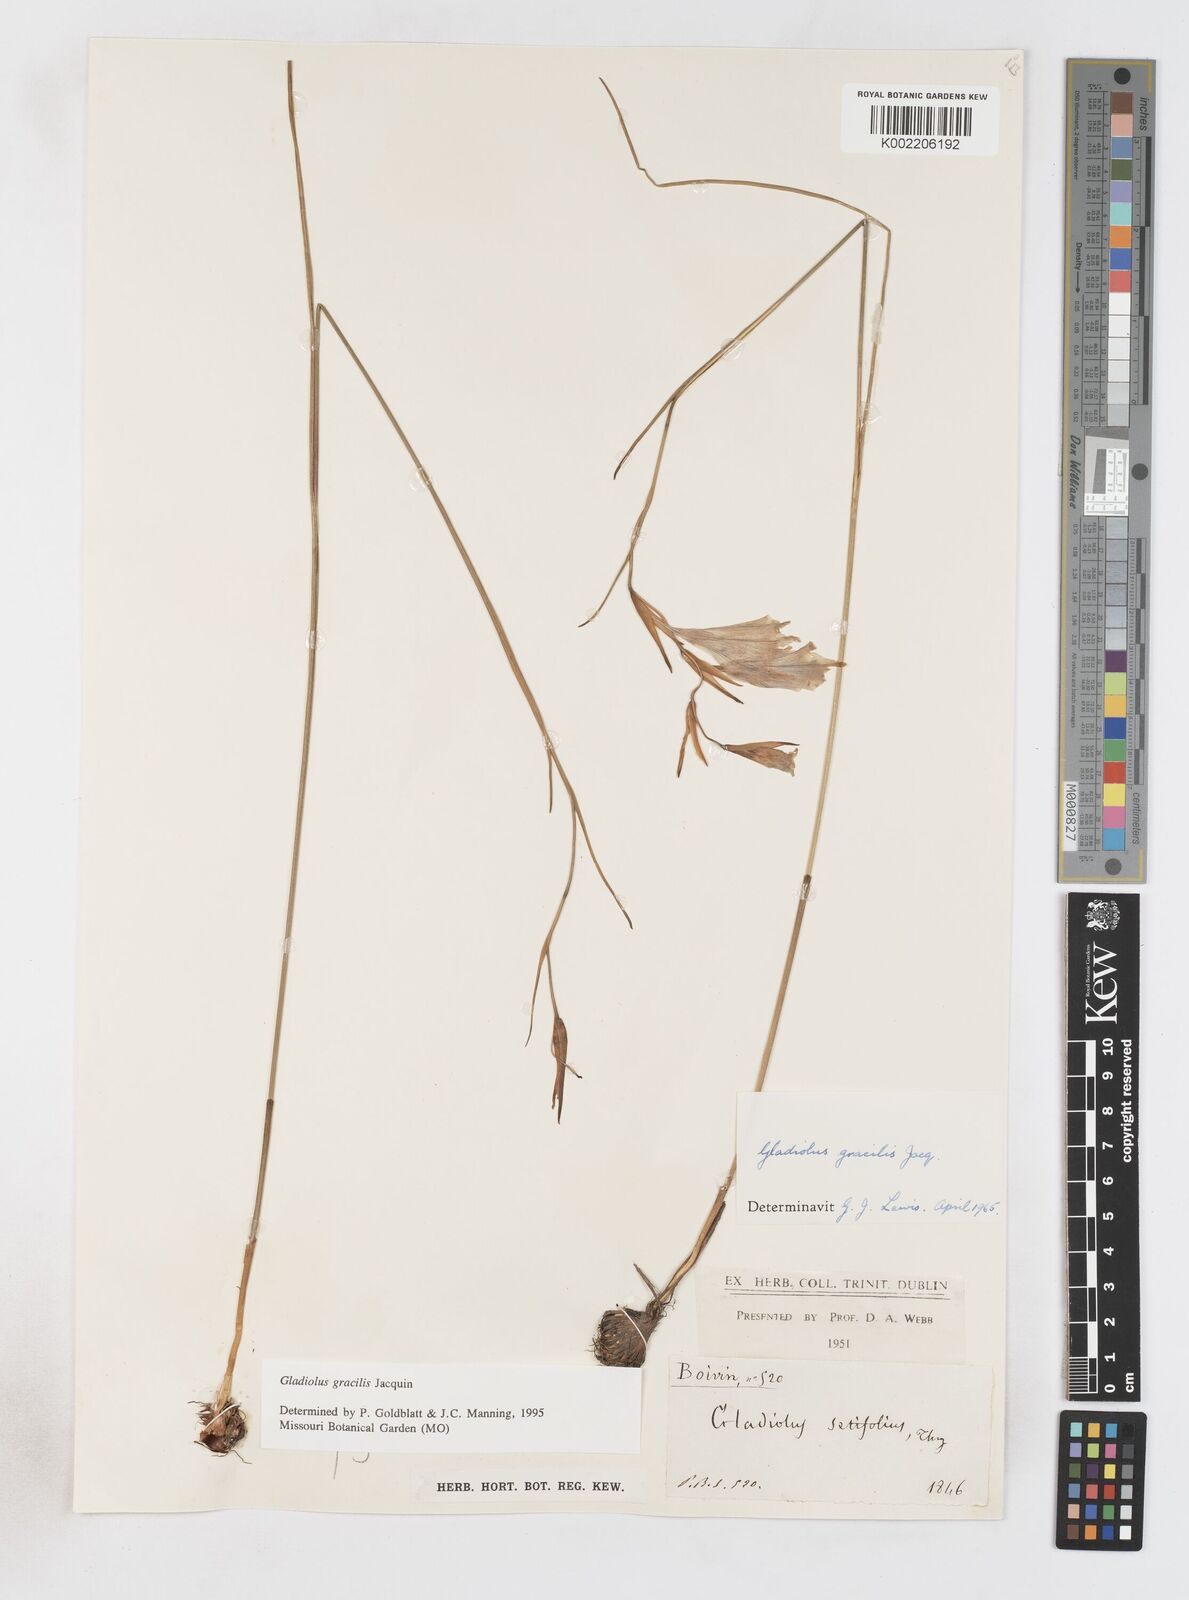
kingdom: Plantae
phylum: Tracheophyta
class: Liliopsida
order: Asparagales
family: Iridaceae
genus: Gladiolus
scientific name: Gladiolus gracilis
